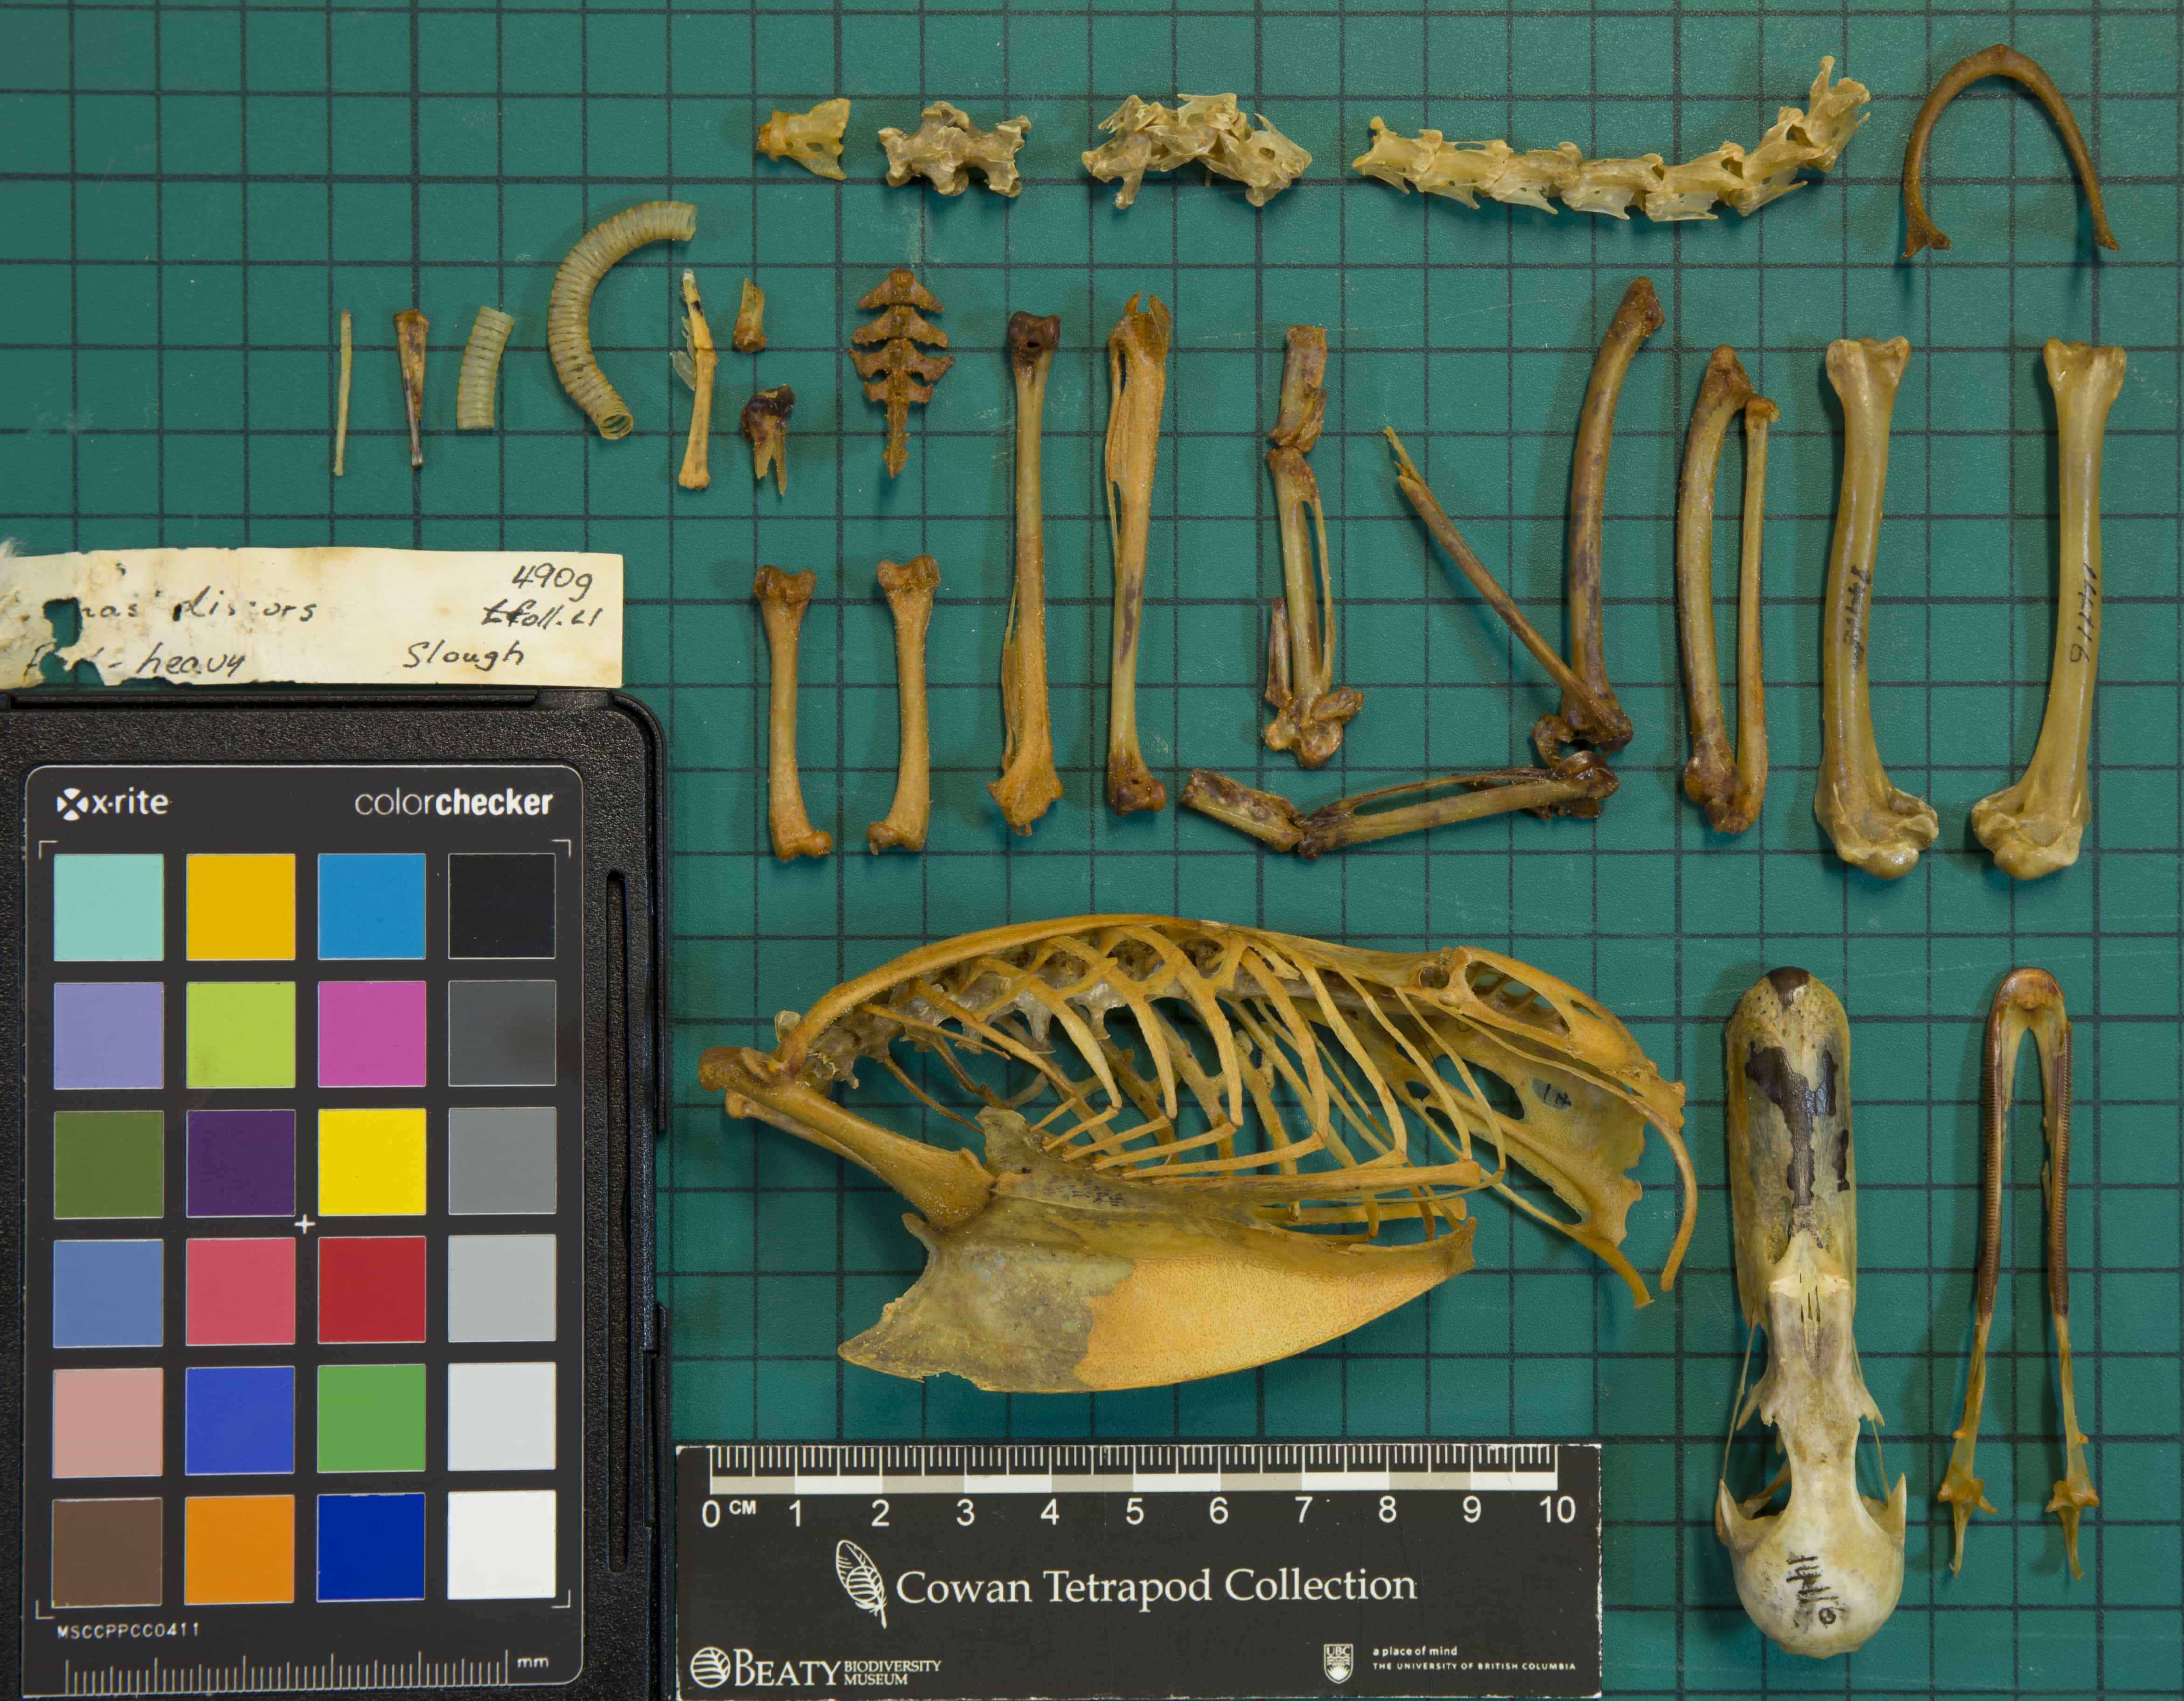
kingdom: Animalia
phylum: Chordata
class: Aves
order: Anseriformes
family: Anatidae
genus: Spatula
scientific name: Spatula discors
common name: Blue-winged Teal
